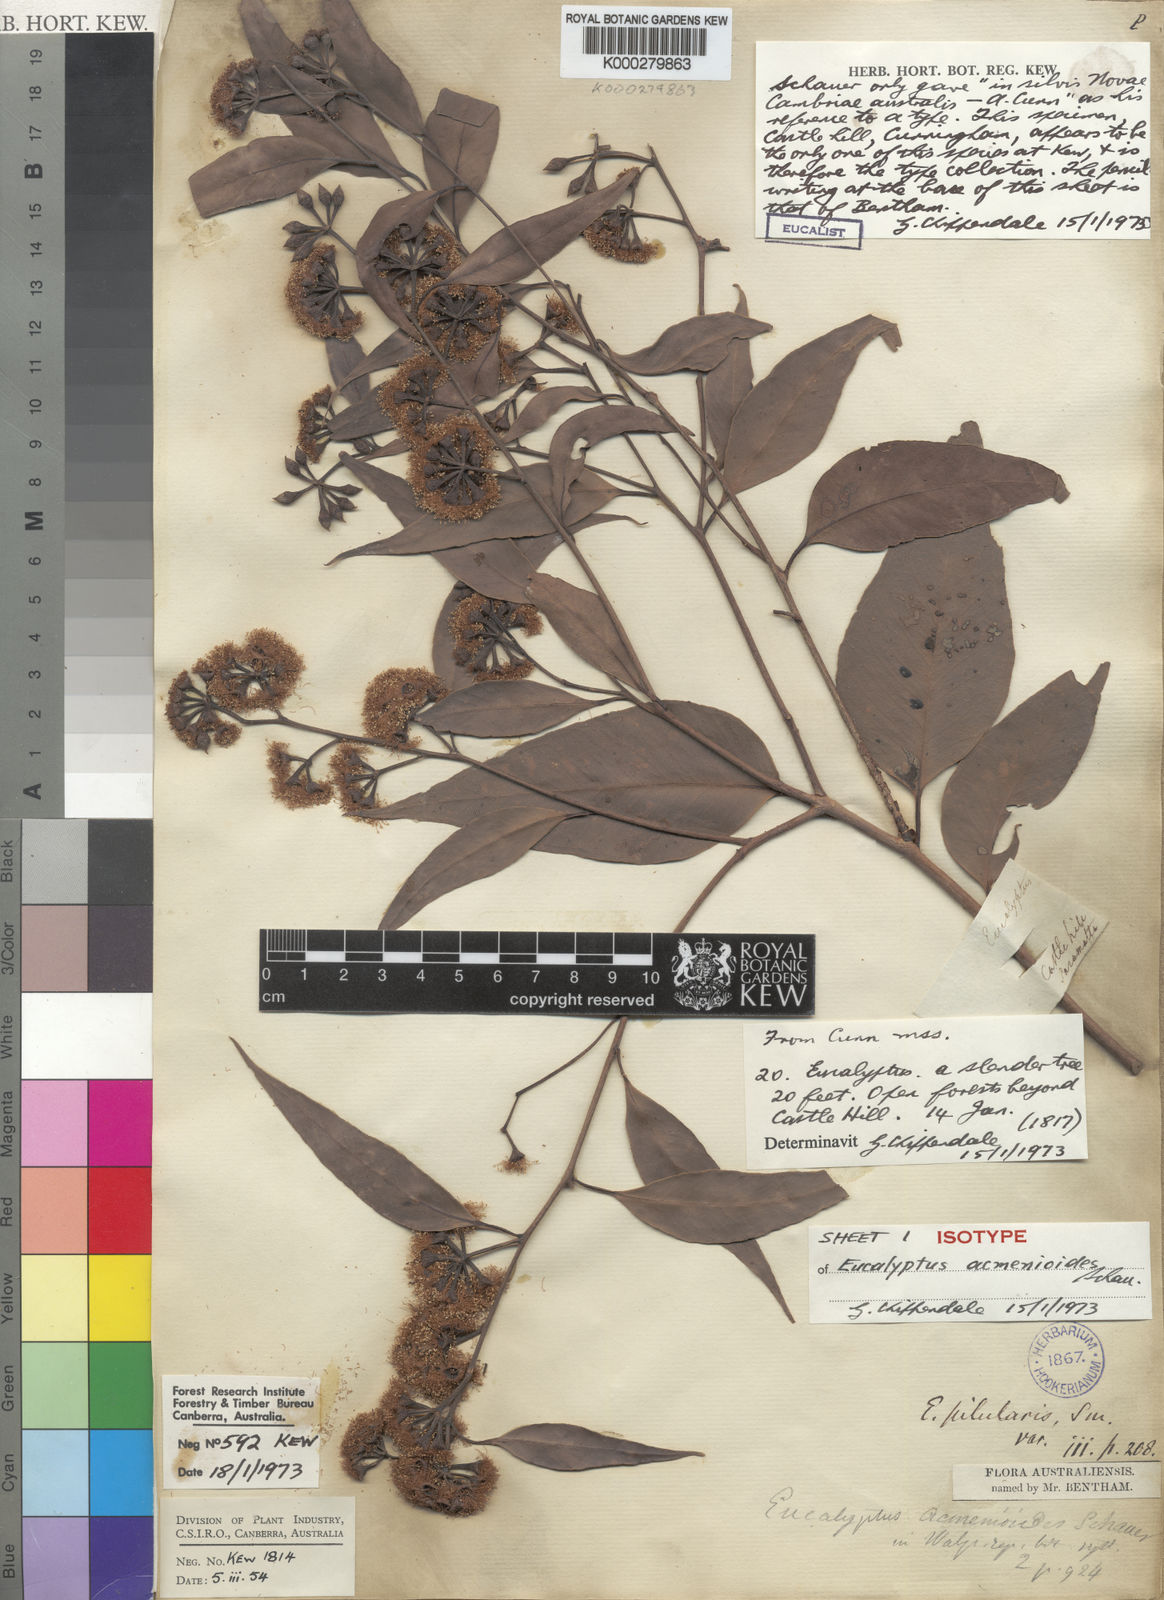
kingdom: Plantae
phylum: Tracheophyta
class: Magnoliopsida
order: Myrtales
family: Myrtaceae
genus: Eucalyptus
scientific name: Eucalyptus acmenoides
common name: White-mahogany
